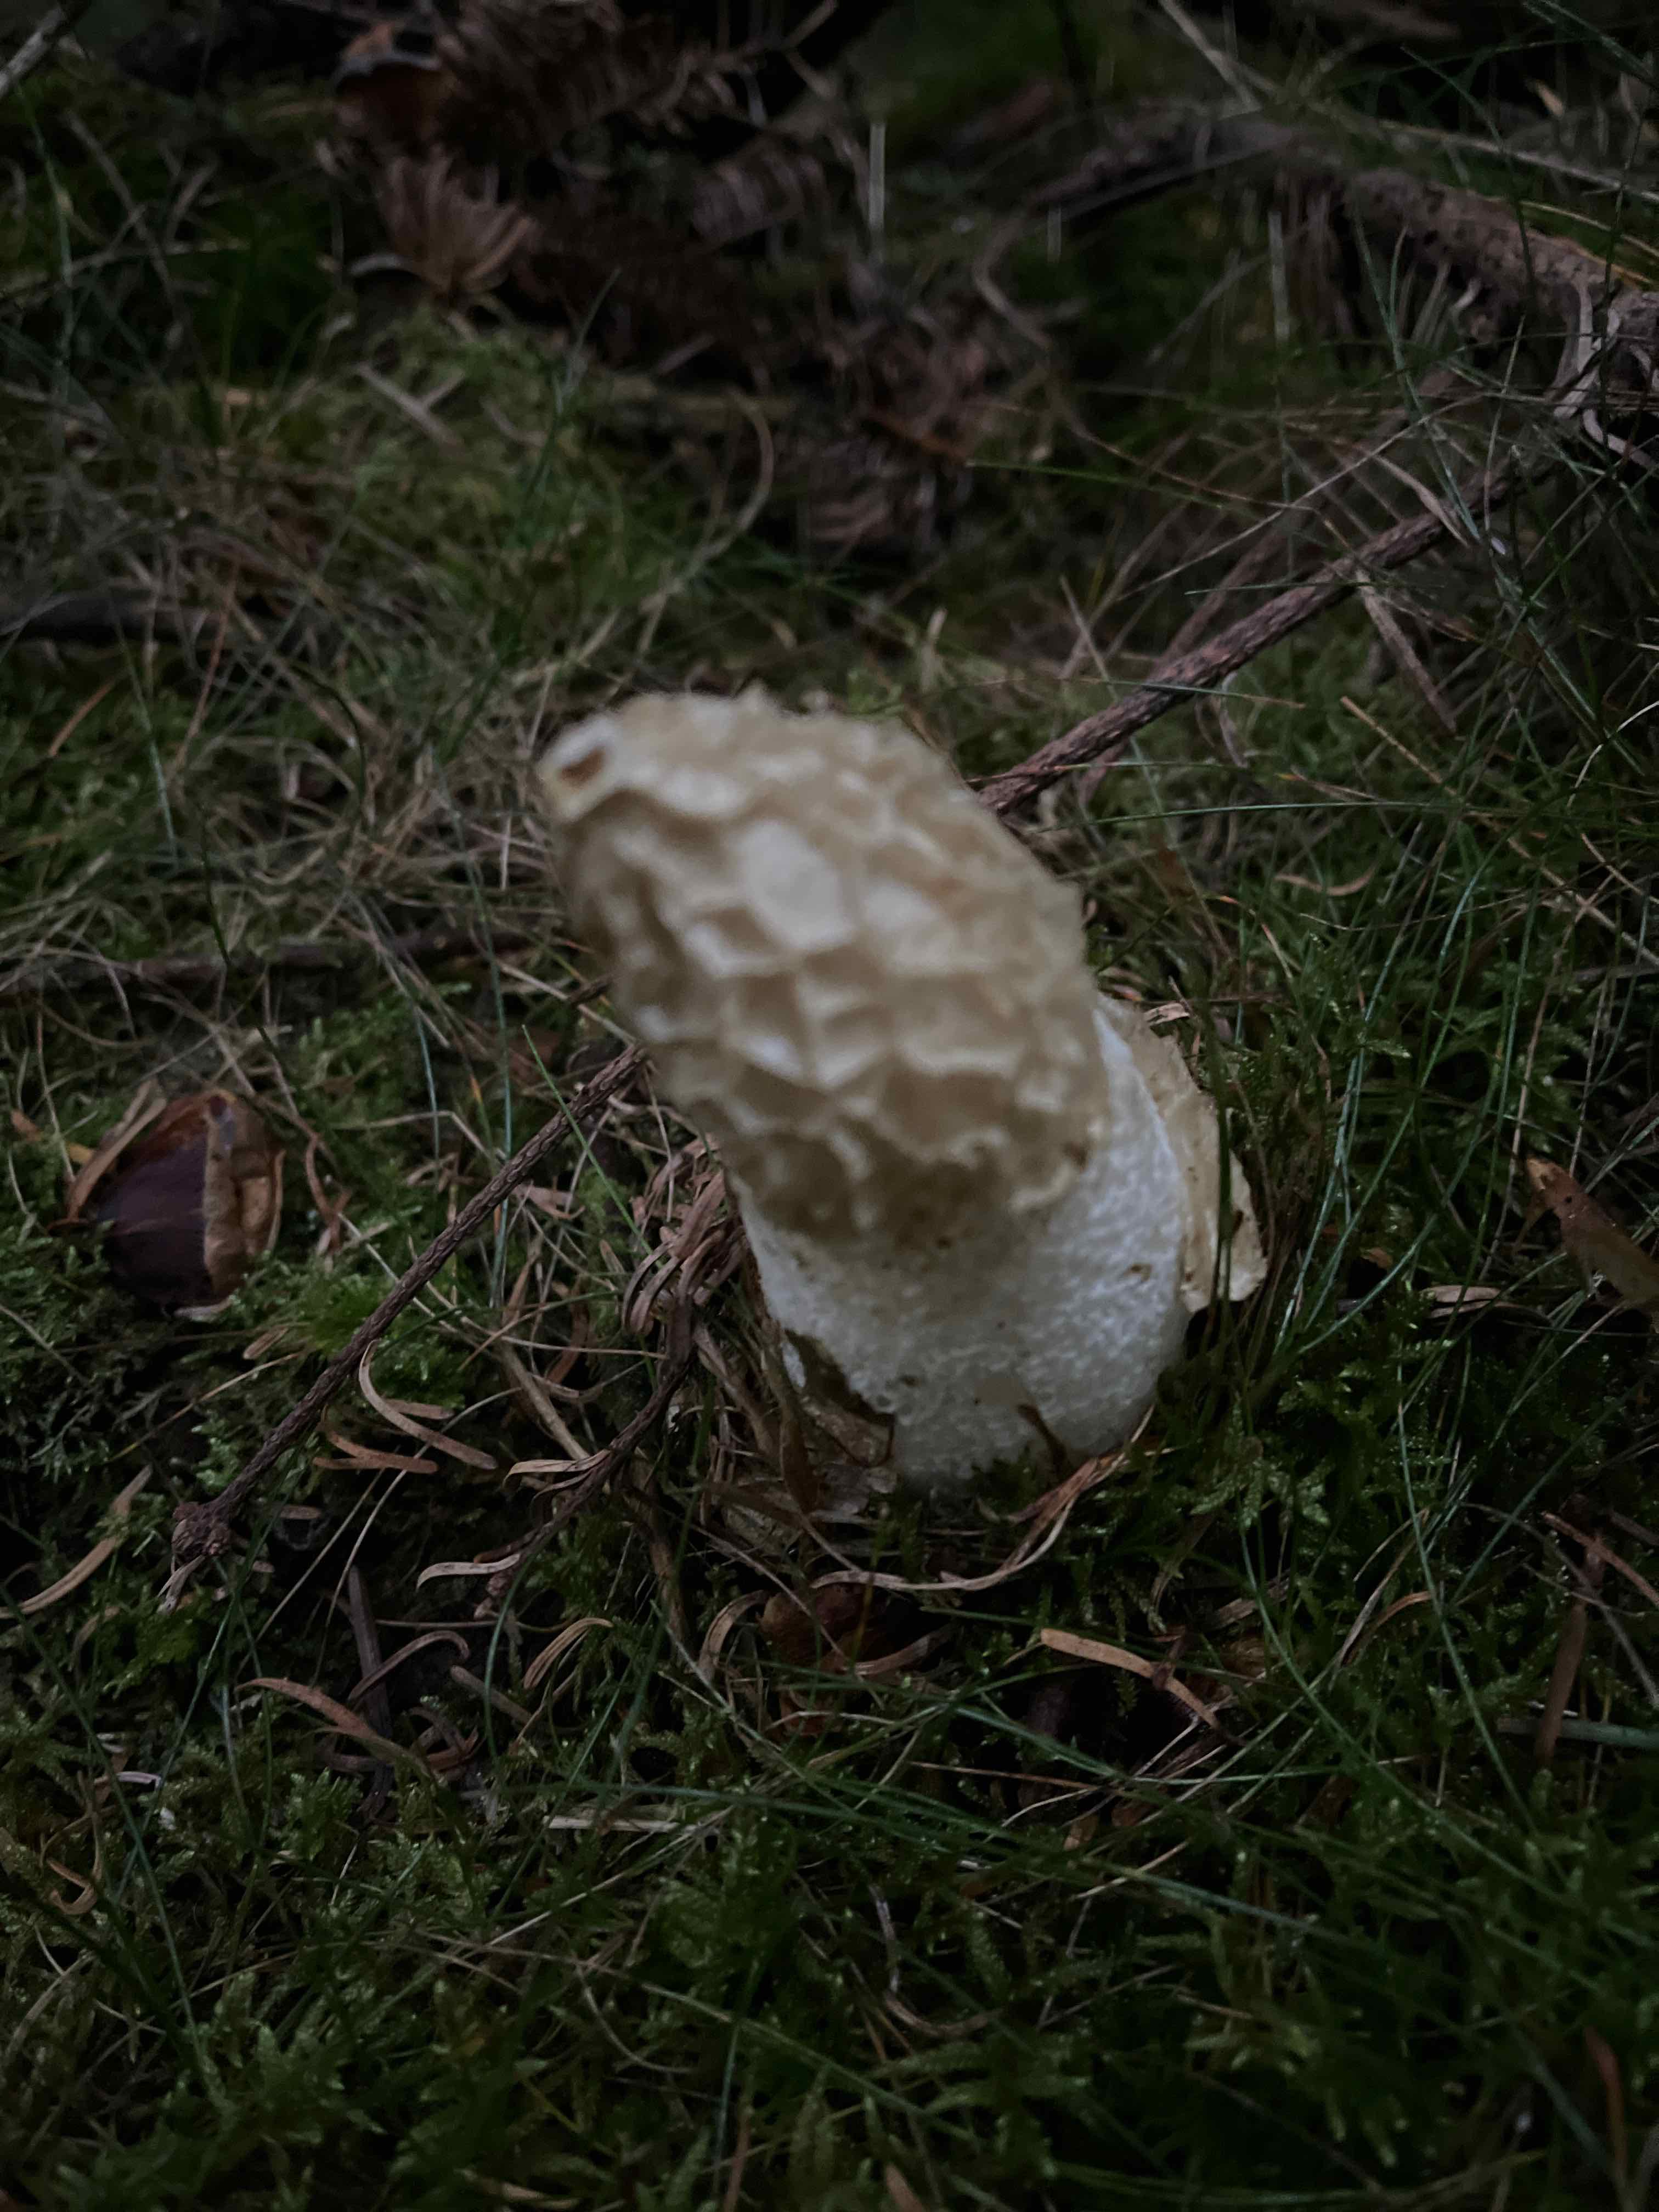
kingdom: Fungi
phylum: Basidiomycota
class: Agaricomycetes
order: Phallales
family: Phallaceae
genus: Phallus
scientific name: Phallus impudicus
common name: almindelig stinksvamp
